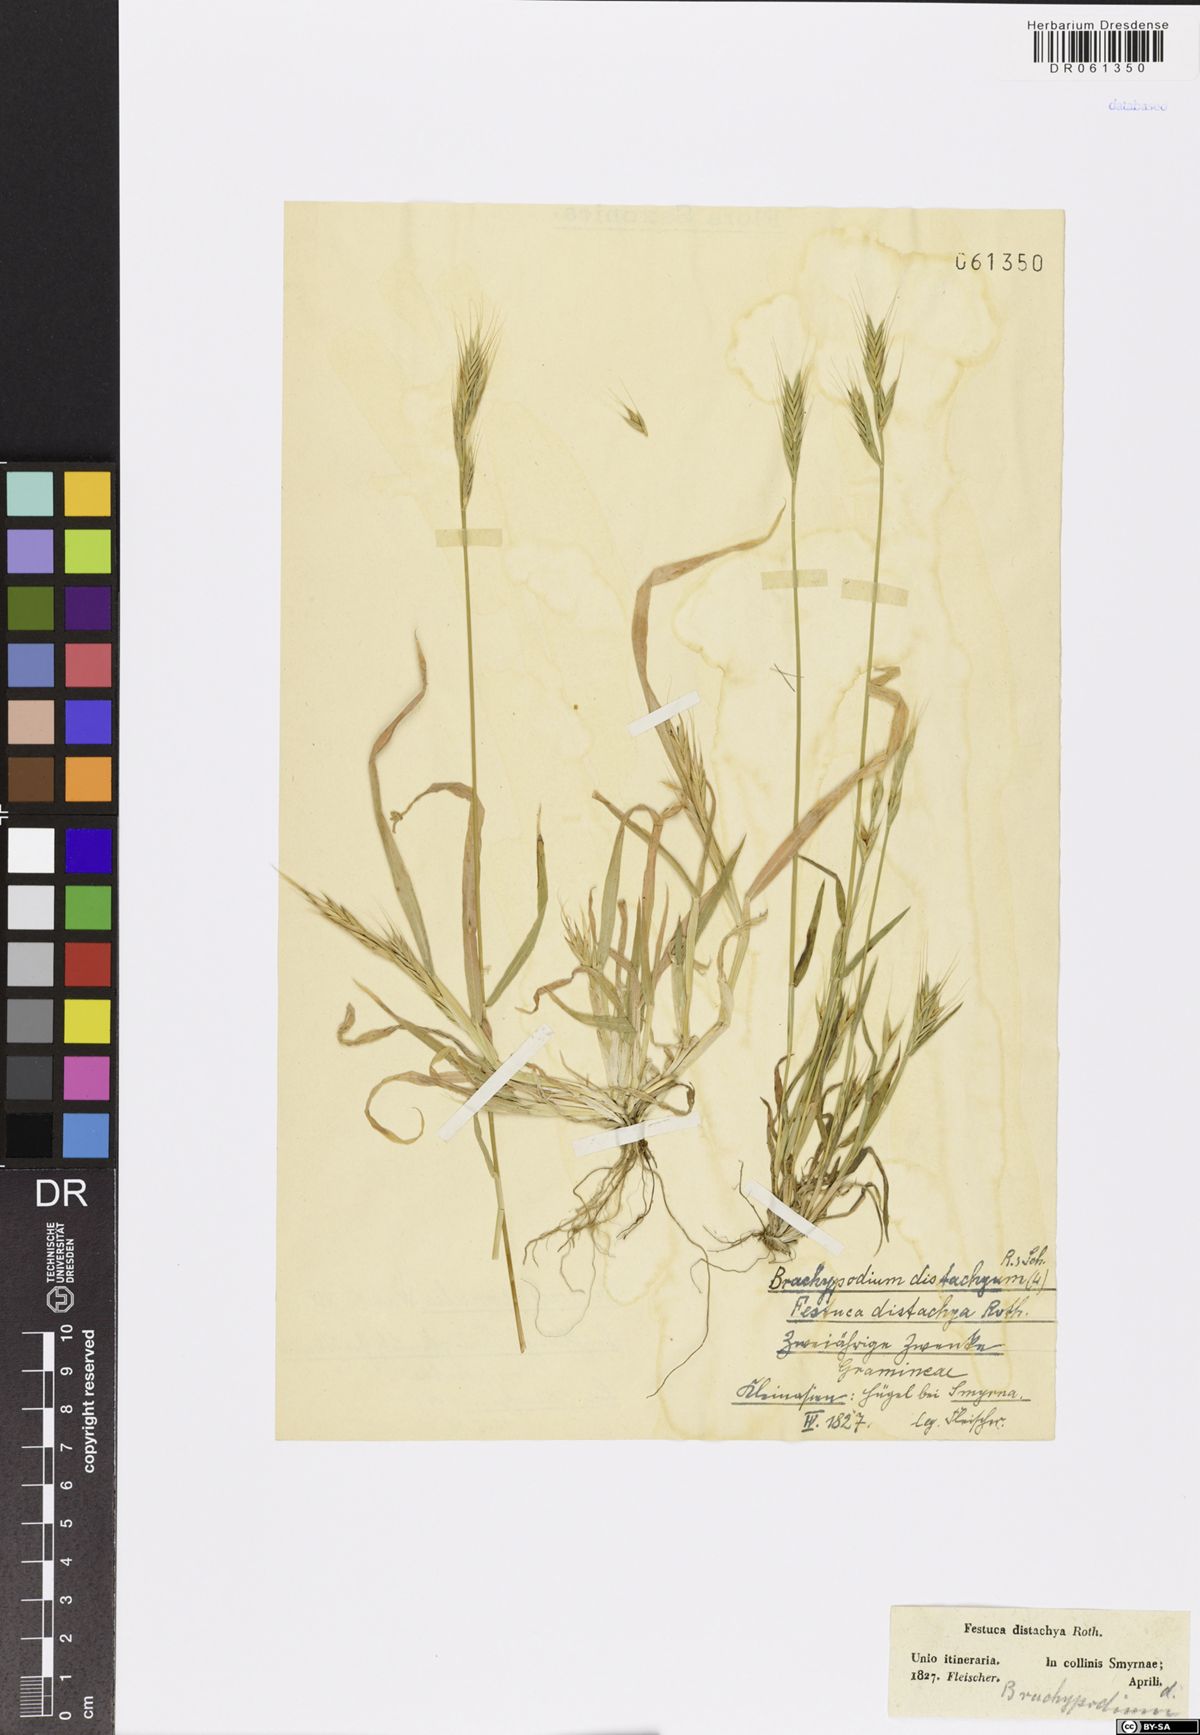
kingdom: Plantae
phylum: Tracheophyta
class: Liliopsida
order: Poales
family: Poaceae
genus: Brachypodium
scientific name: Brachypodium distachyon
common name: Stiff brome
